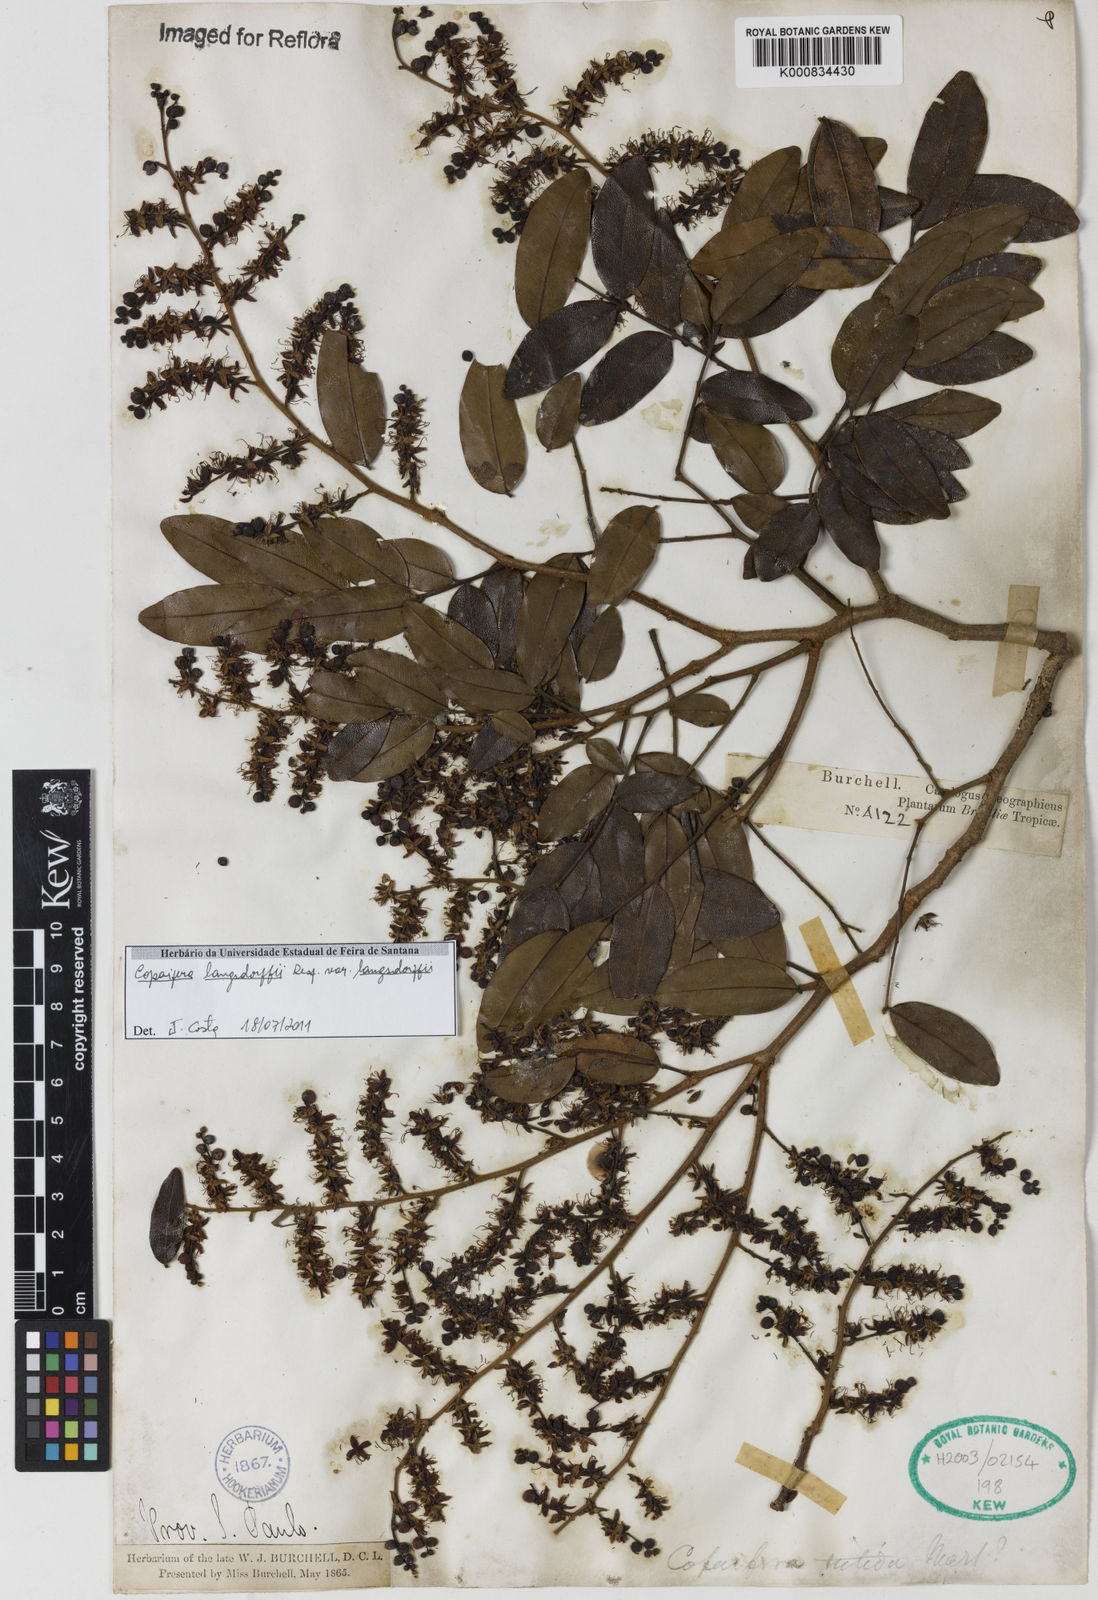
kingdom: Plantae
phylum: Tracheophyta
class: Magnoliopsida
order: Fabales
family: Fabaceae
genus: Copaifera
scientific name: Copaifera langsdorffii
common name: Brazilian diesel tree
